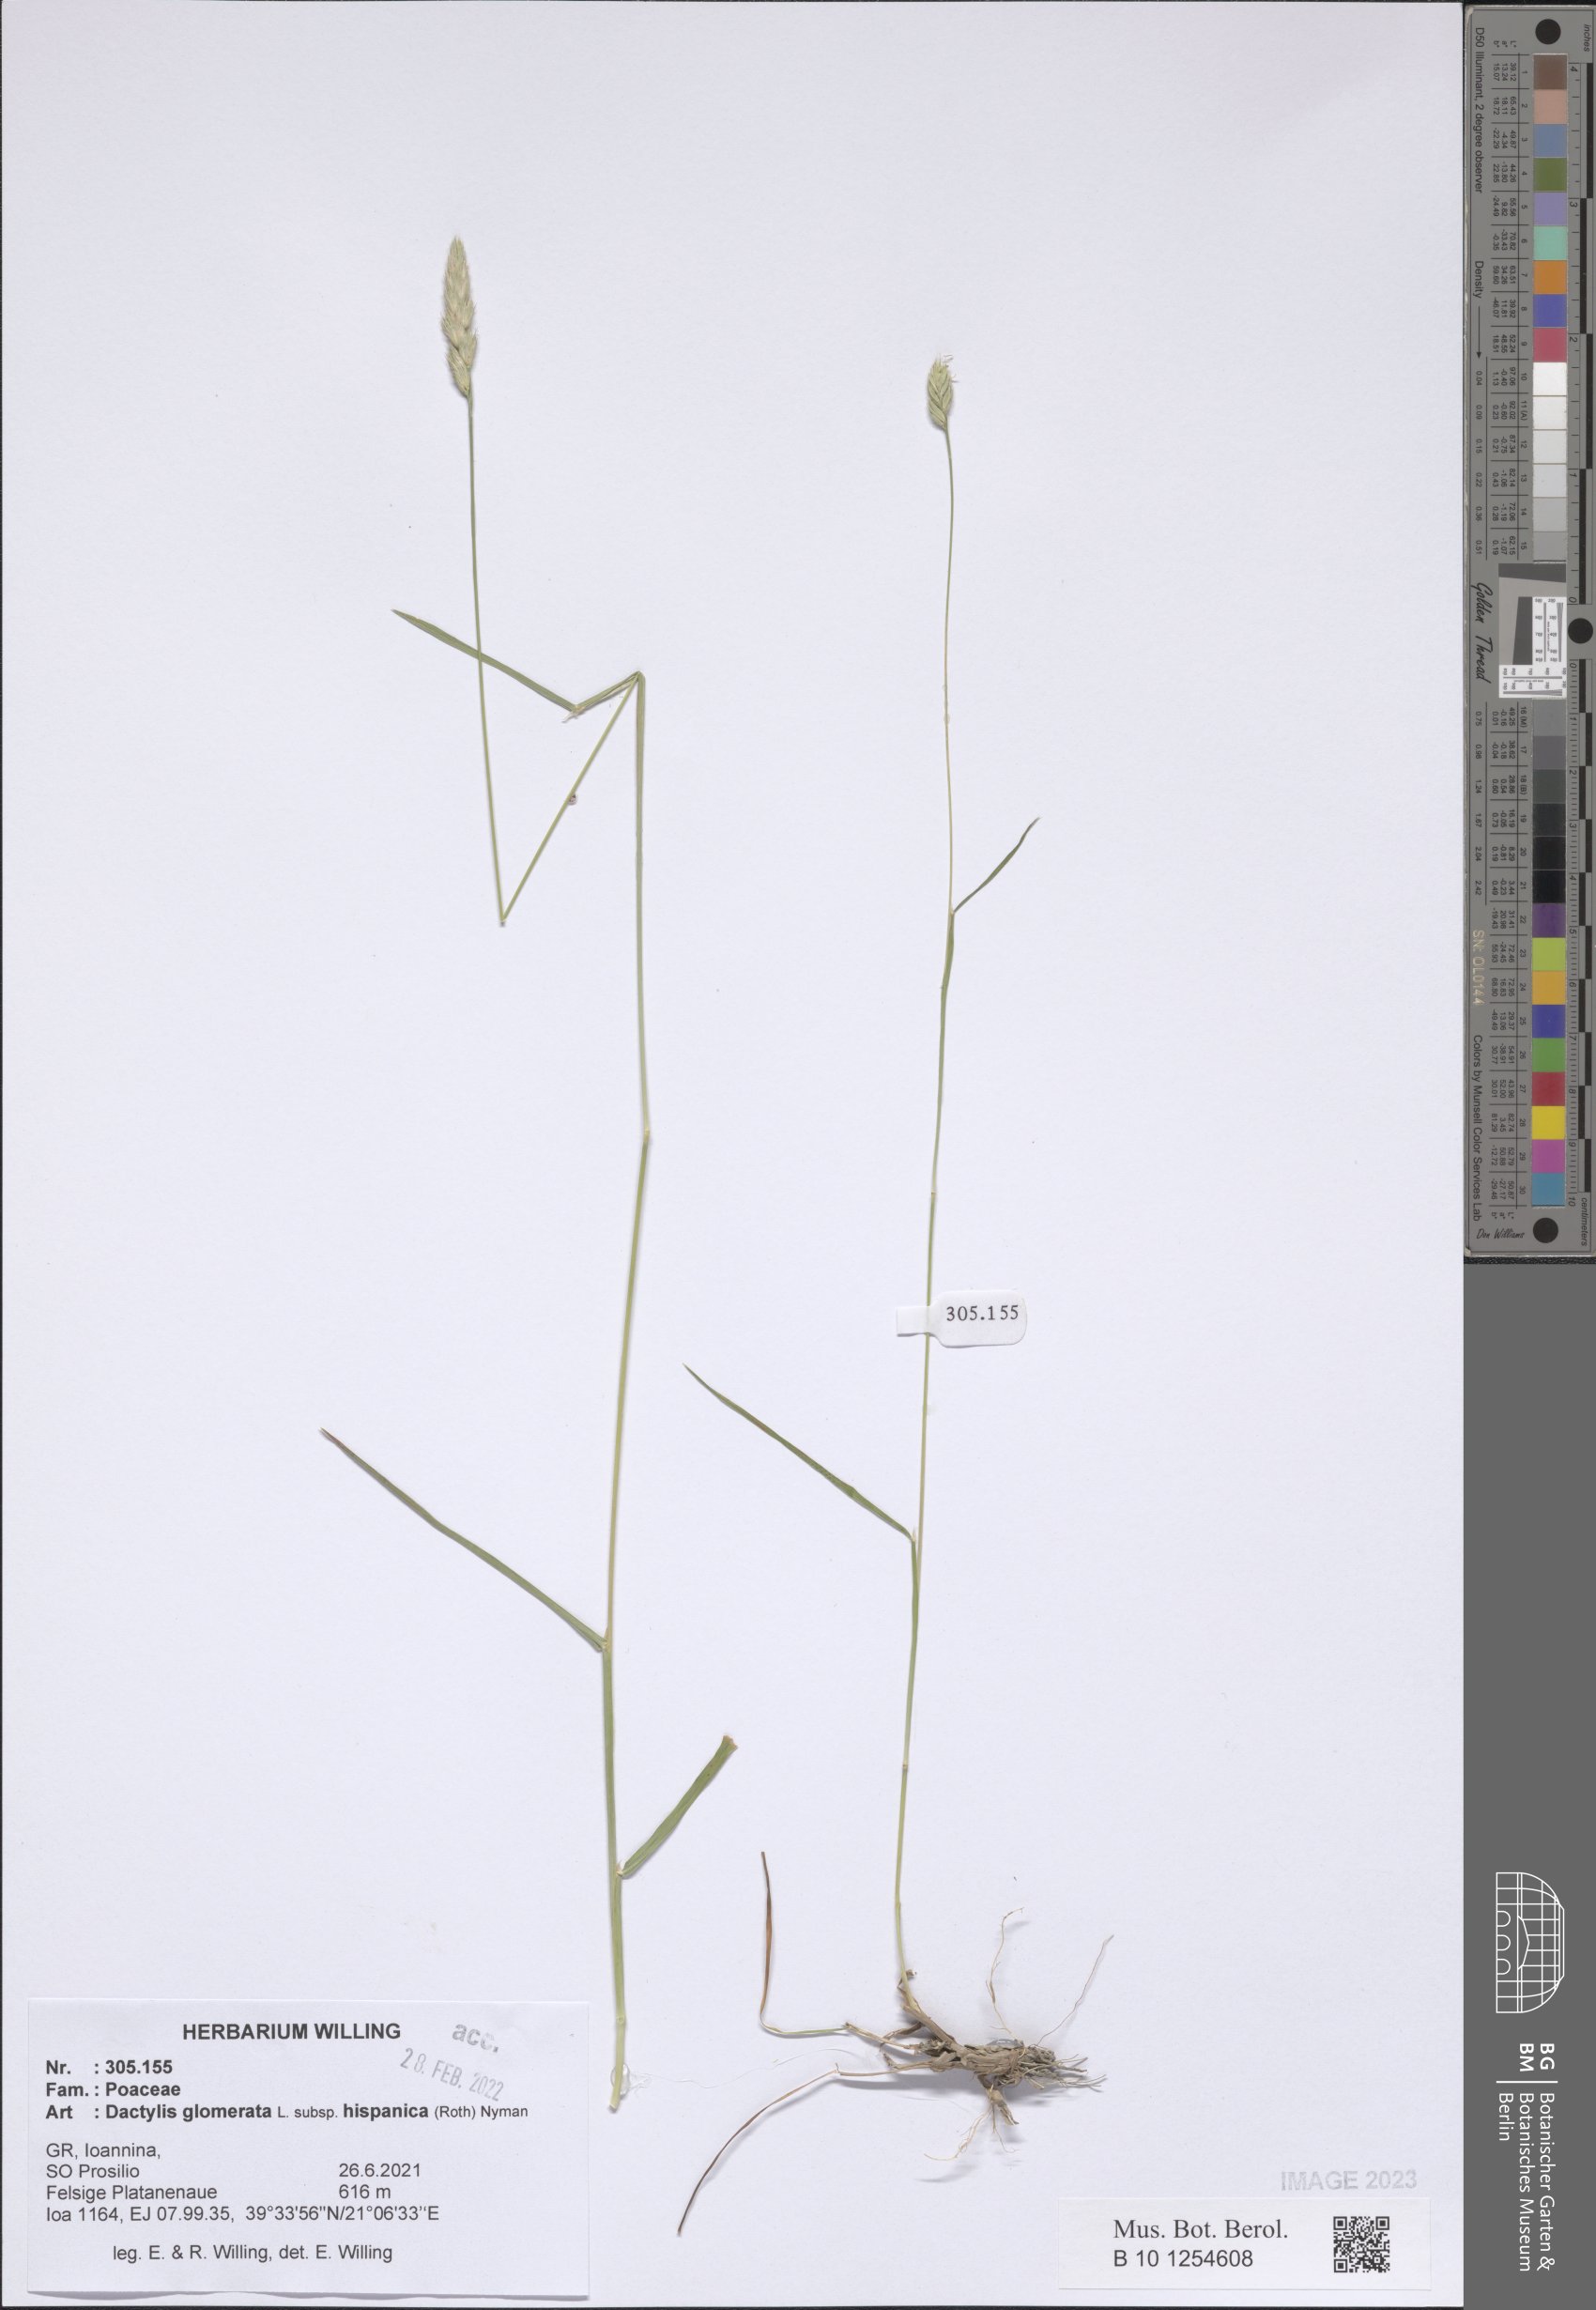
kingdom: Plantae
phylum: Tracheophyta
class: Liliopsida
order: Poales
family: Poaceae
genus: Dactylis
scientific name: Dactylis glomerata
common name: Orchardgrass
